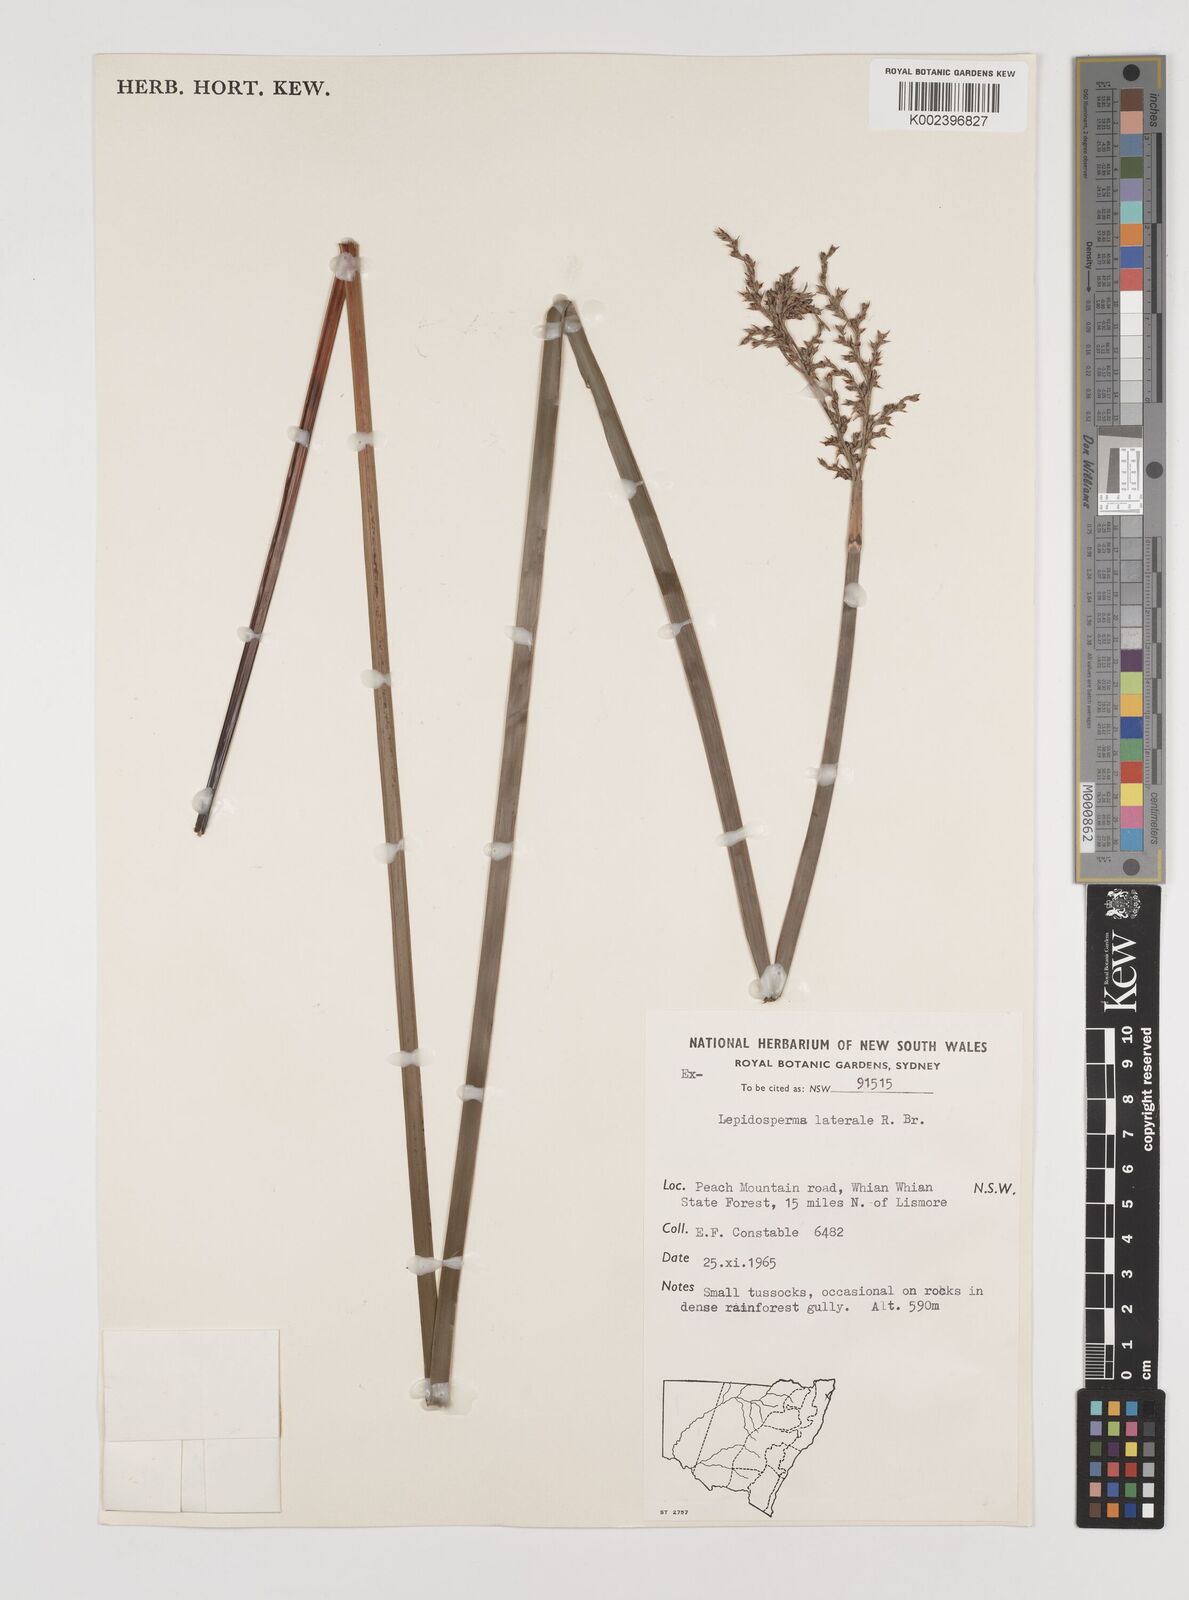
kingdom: Plantae
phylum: Tracheophyta
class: Liliopsida
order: Poales
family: Cyperaceae
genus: Lepidosperma
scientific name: Lepidosperma laterale
